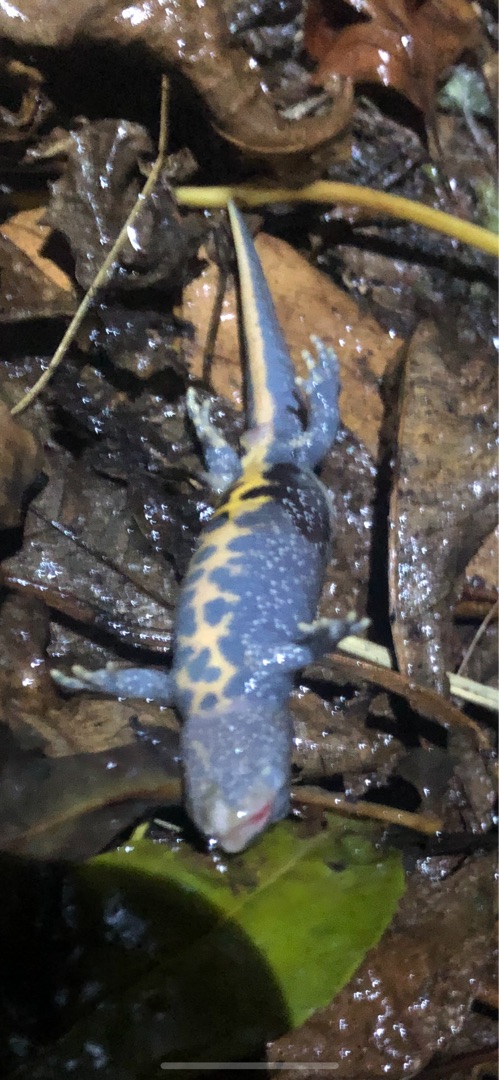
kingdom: Animalia
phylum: Chordata
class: Amphibia
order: Caudata
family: Salamandridae
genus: Triturus
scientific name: Triturus cristatus
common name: Stor vandsalamander
